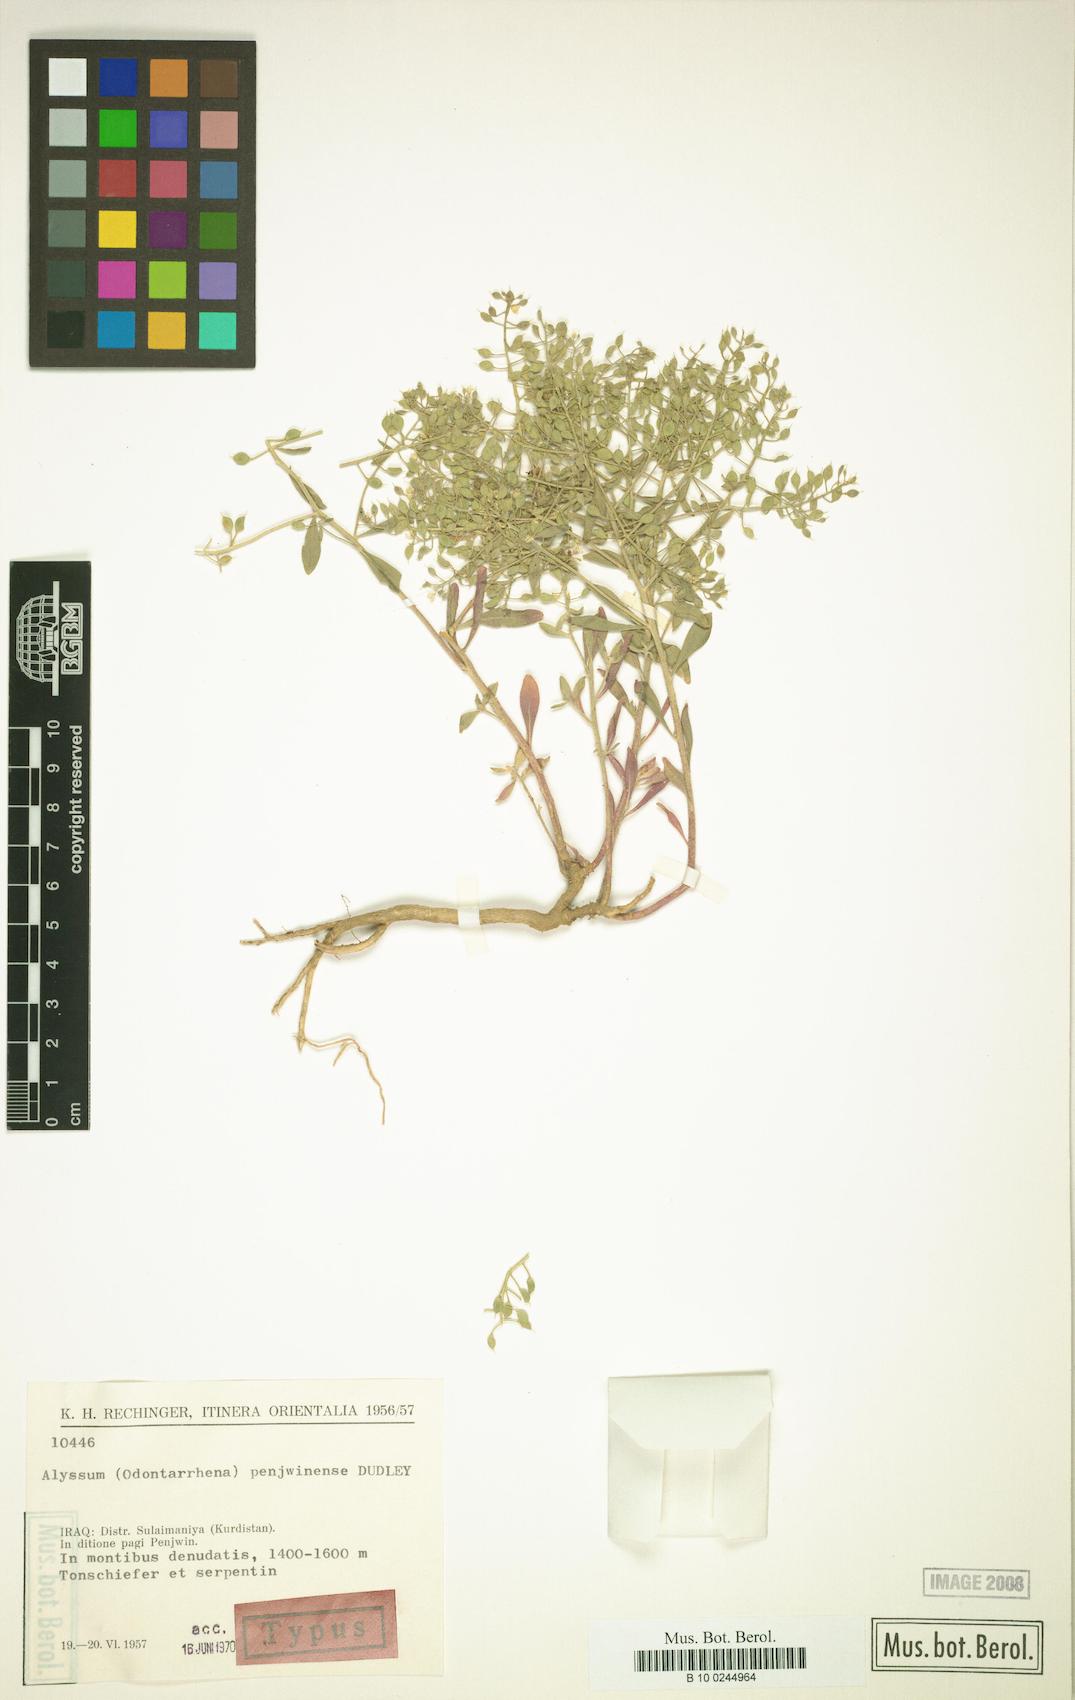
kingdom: Plantae
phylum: Tracheophyta
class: Magnoliopsida
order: Brassicales
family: Brassicaceae
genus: Odontarrhena
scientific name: Odontarrhena penjwinensis
